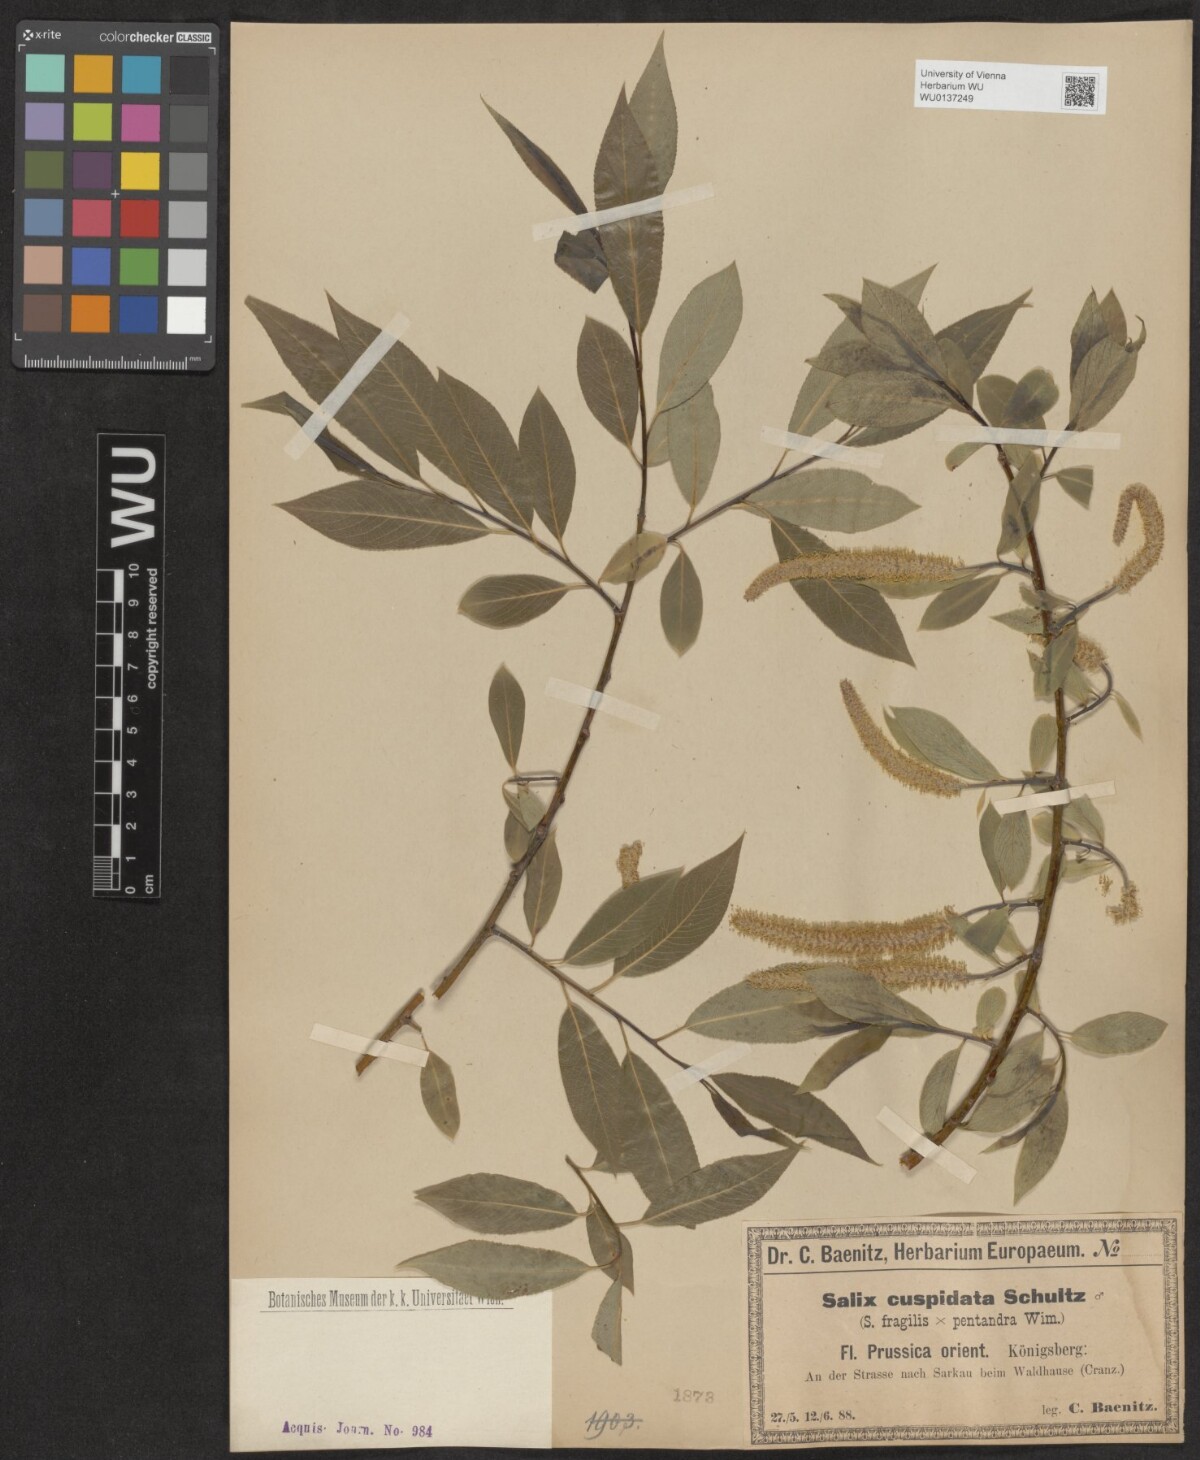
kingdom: Plantae
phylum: Tracheophyta
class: Magnoliopsida
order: Malpighiales
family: Salicaceae
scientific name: Salicaceae
